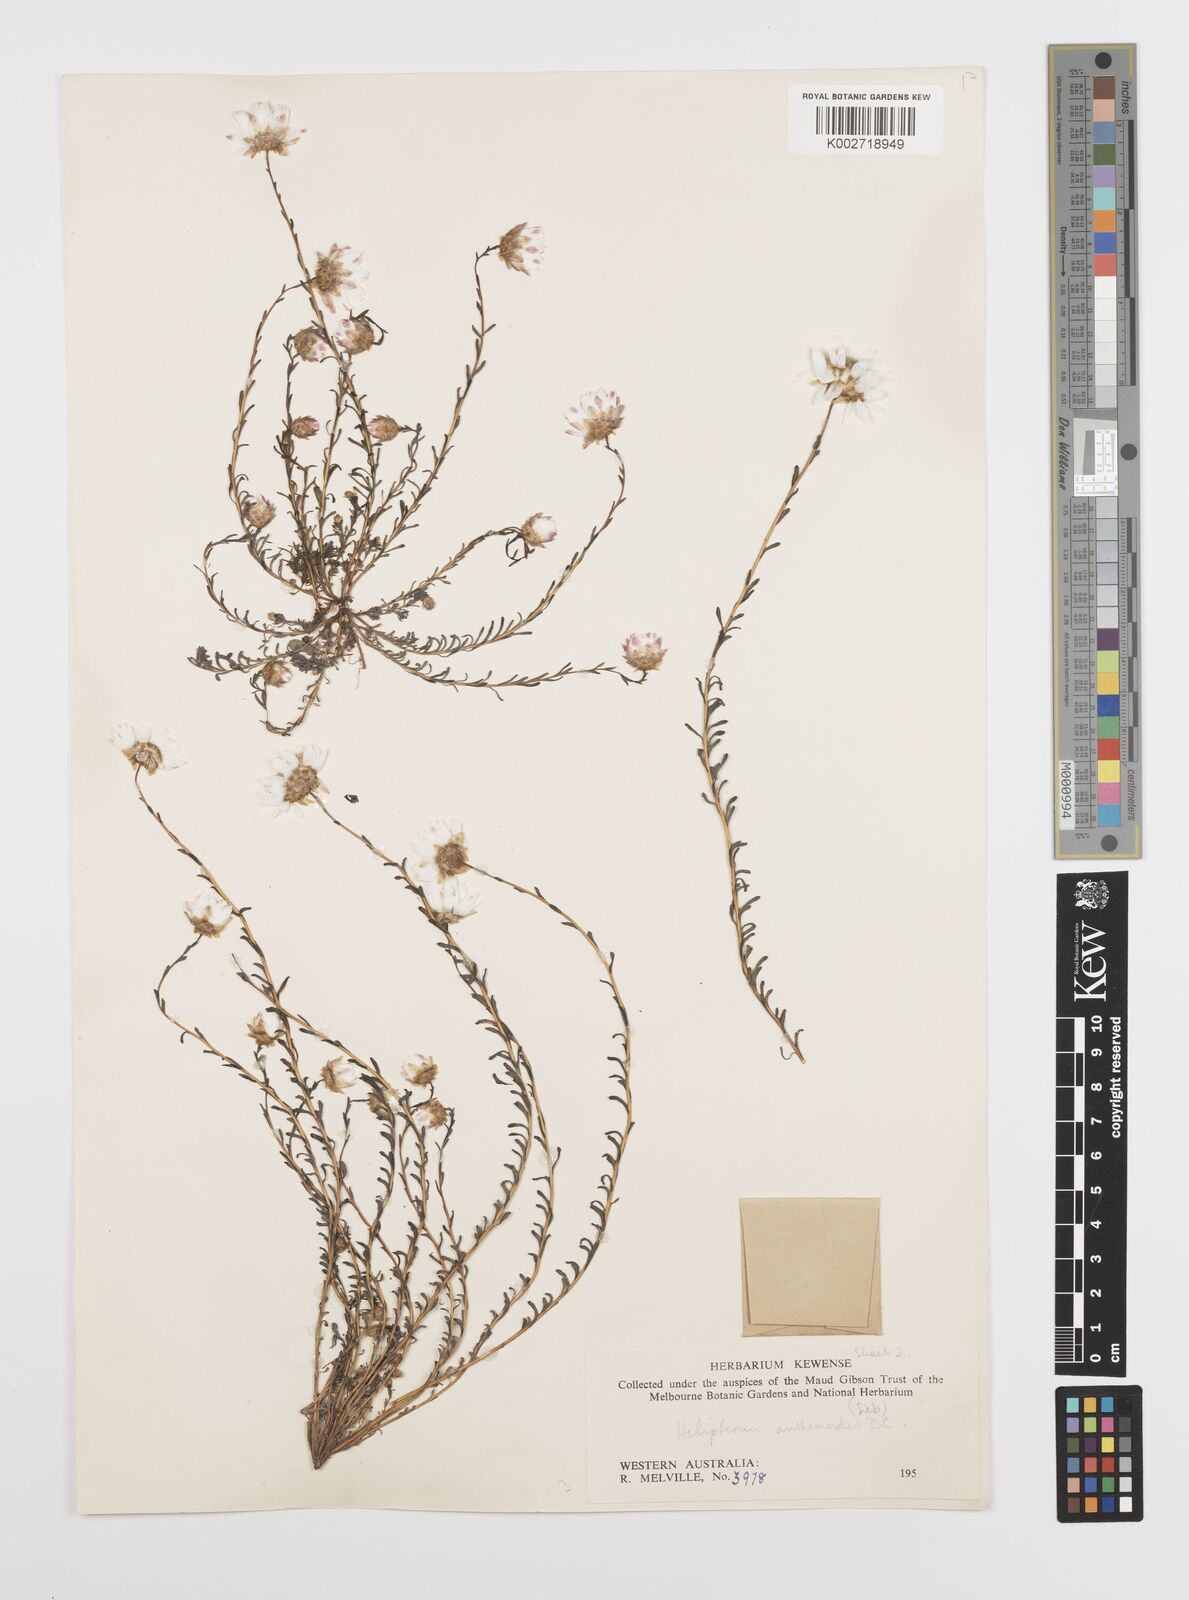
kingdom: Plantae
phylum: Tracheophyta
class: Magnoliopsida
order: Asterales
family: Asteraceae
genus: Rhodanthe
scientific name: Rhodanthe anthemoides
